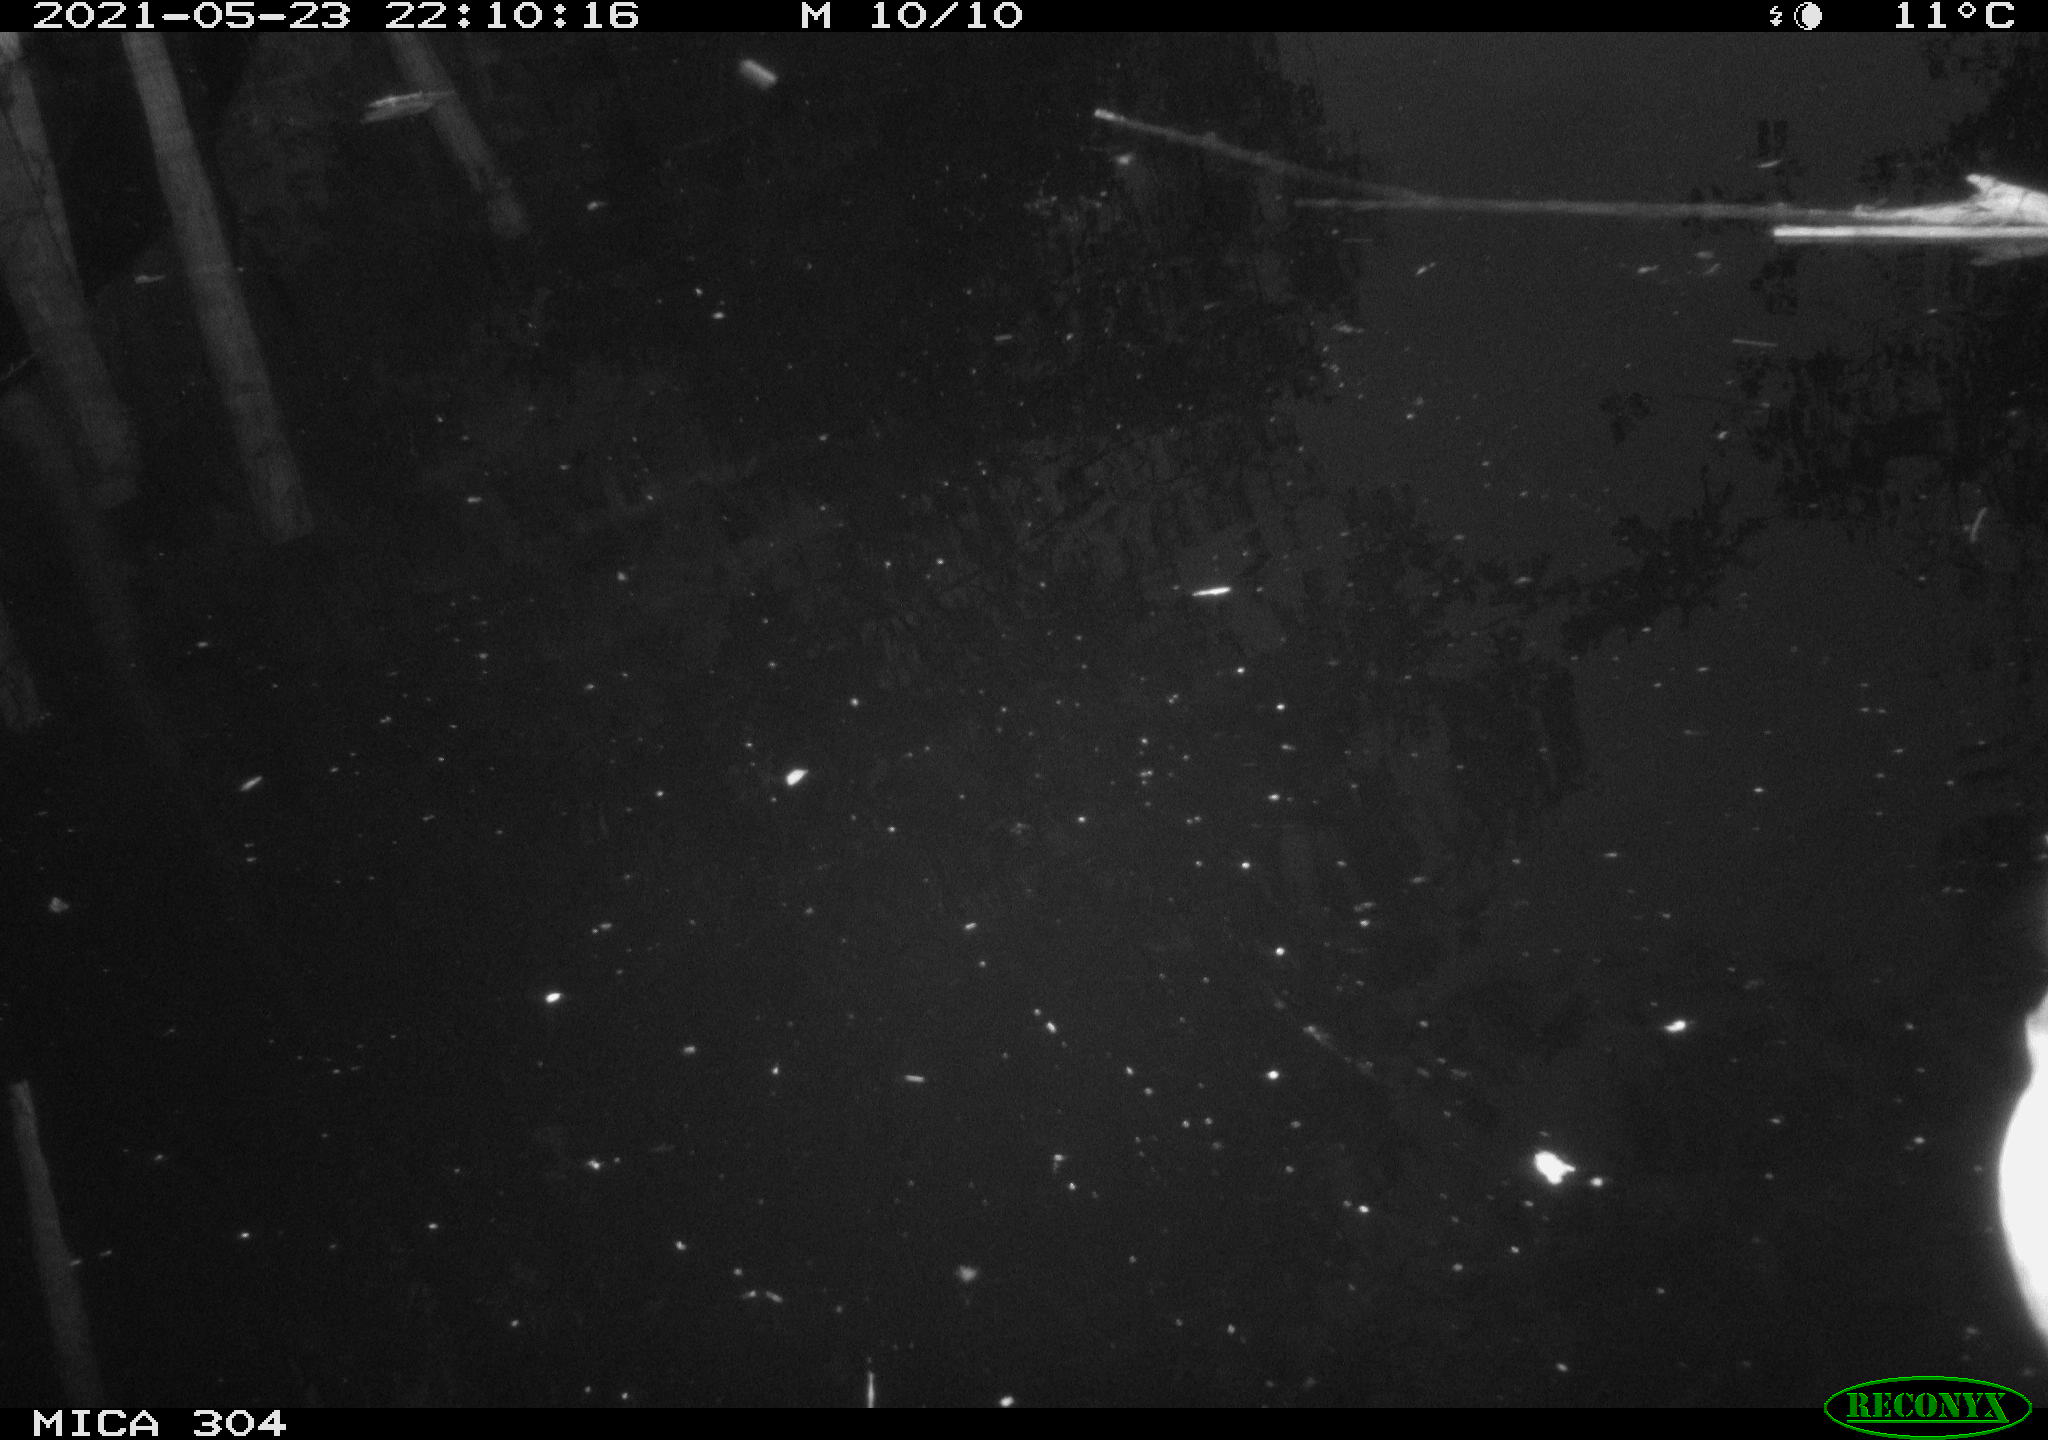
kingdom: Animalia
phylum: Chordata
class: Aves
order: Anseriformes
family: Anatidae
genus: Anas
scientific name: Anas platyrhynchos
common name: Mallard
